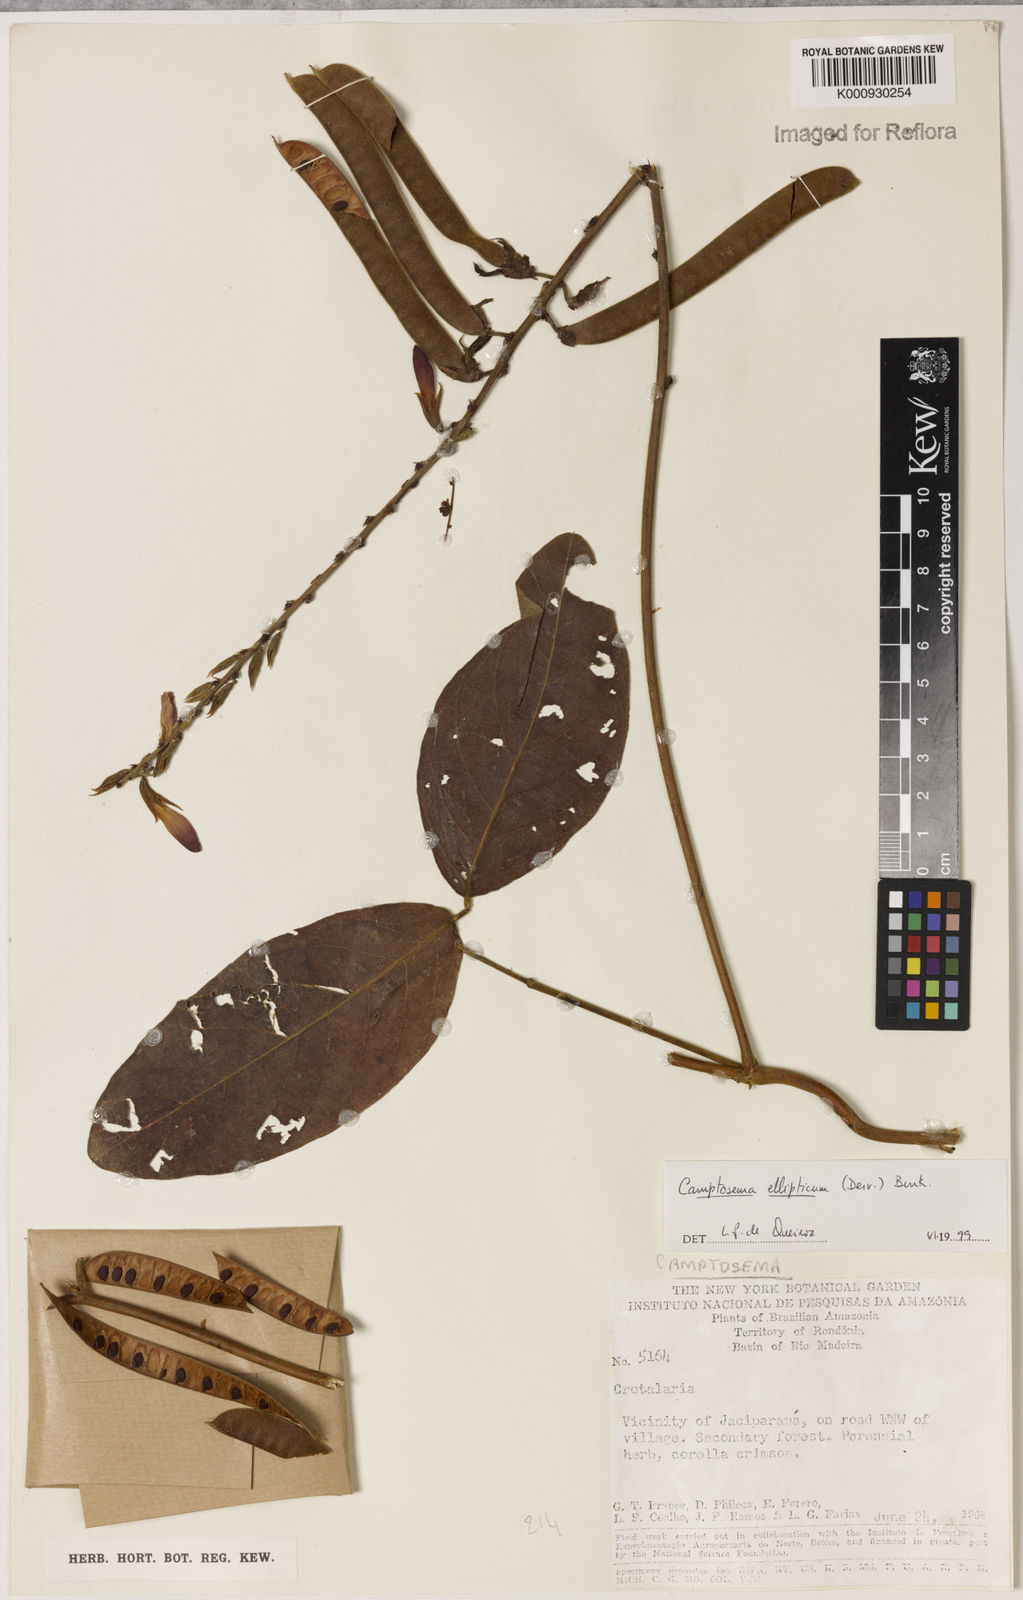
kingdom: Plantae
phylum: Tracheophyta
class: Magnoliopsida
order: Fabales
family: Fabaceae
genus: Camptosema
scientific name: Camptosema
